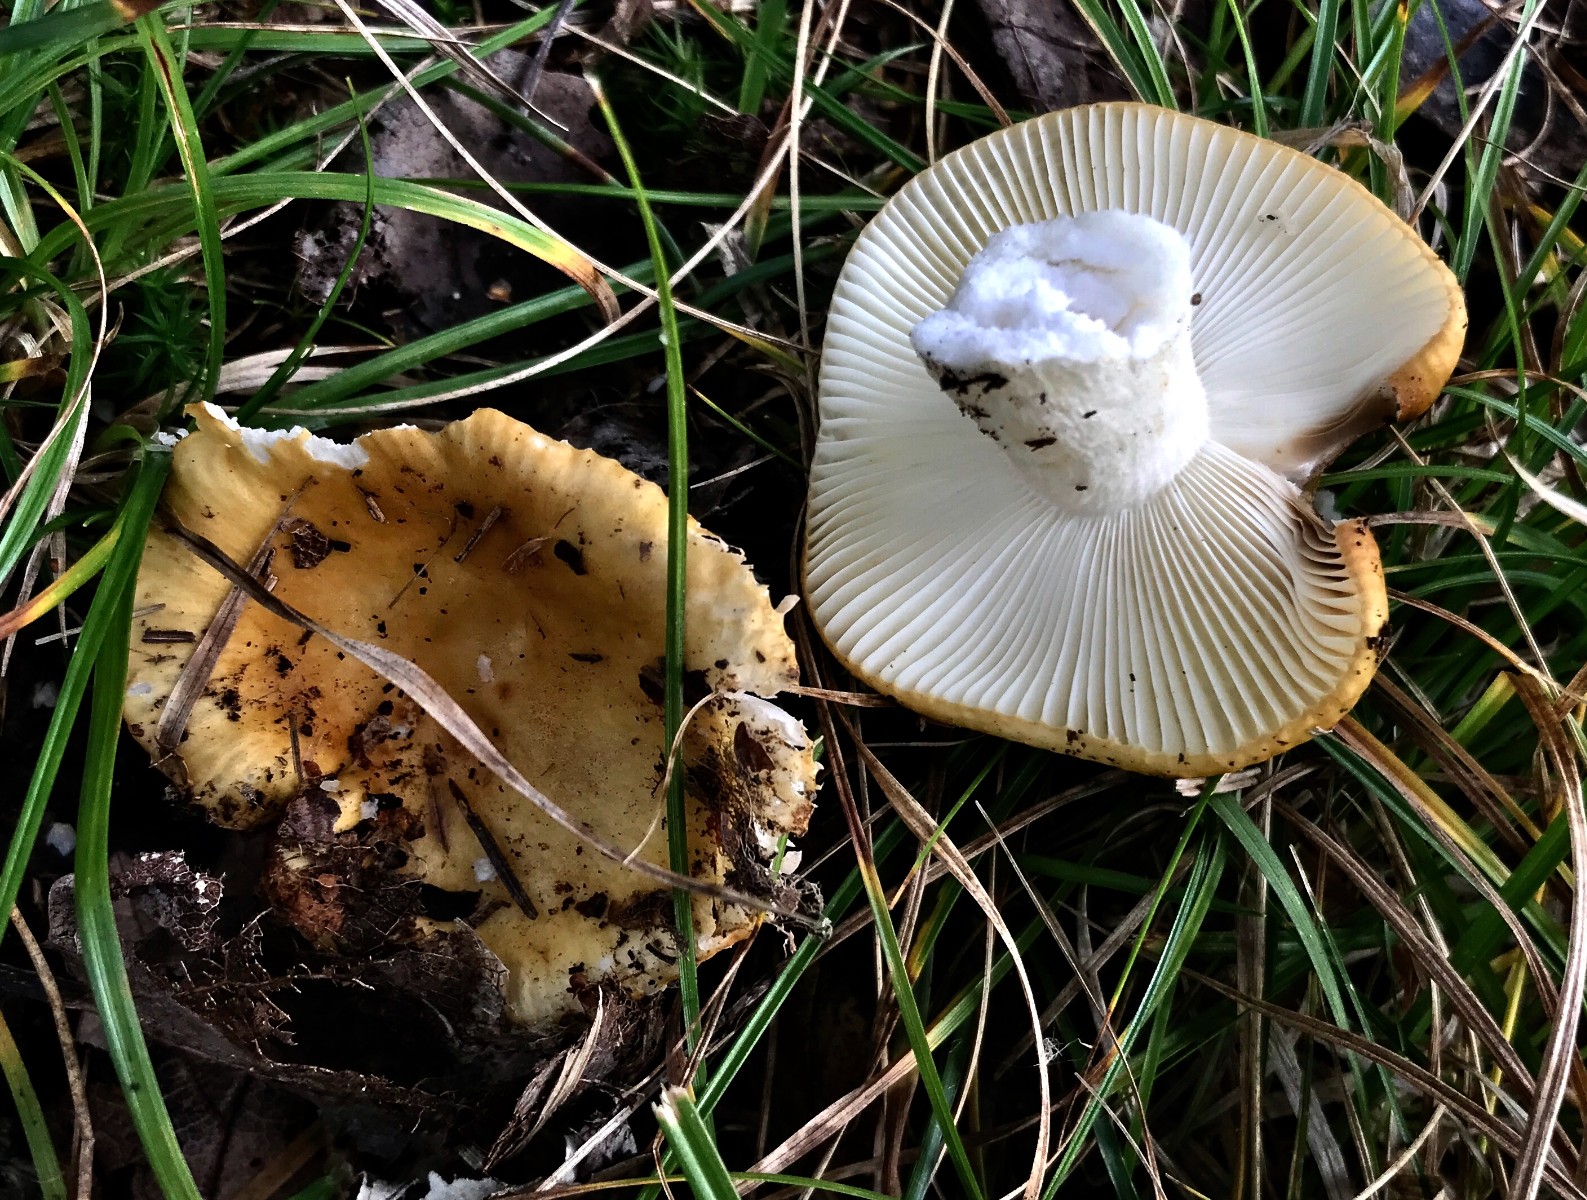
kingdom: Fungi
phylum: Basidiomycota
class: Agaricomycetes
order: Russulales
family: Russulaceae
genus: Russula
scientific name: Russula ochroleuca
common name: okkergul skørhat
